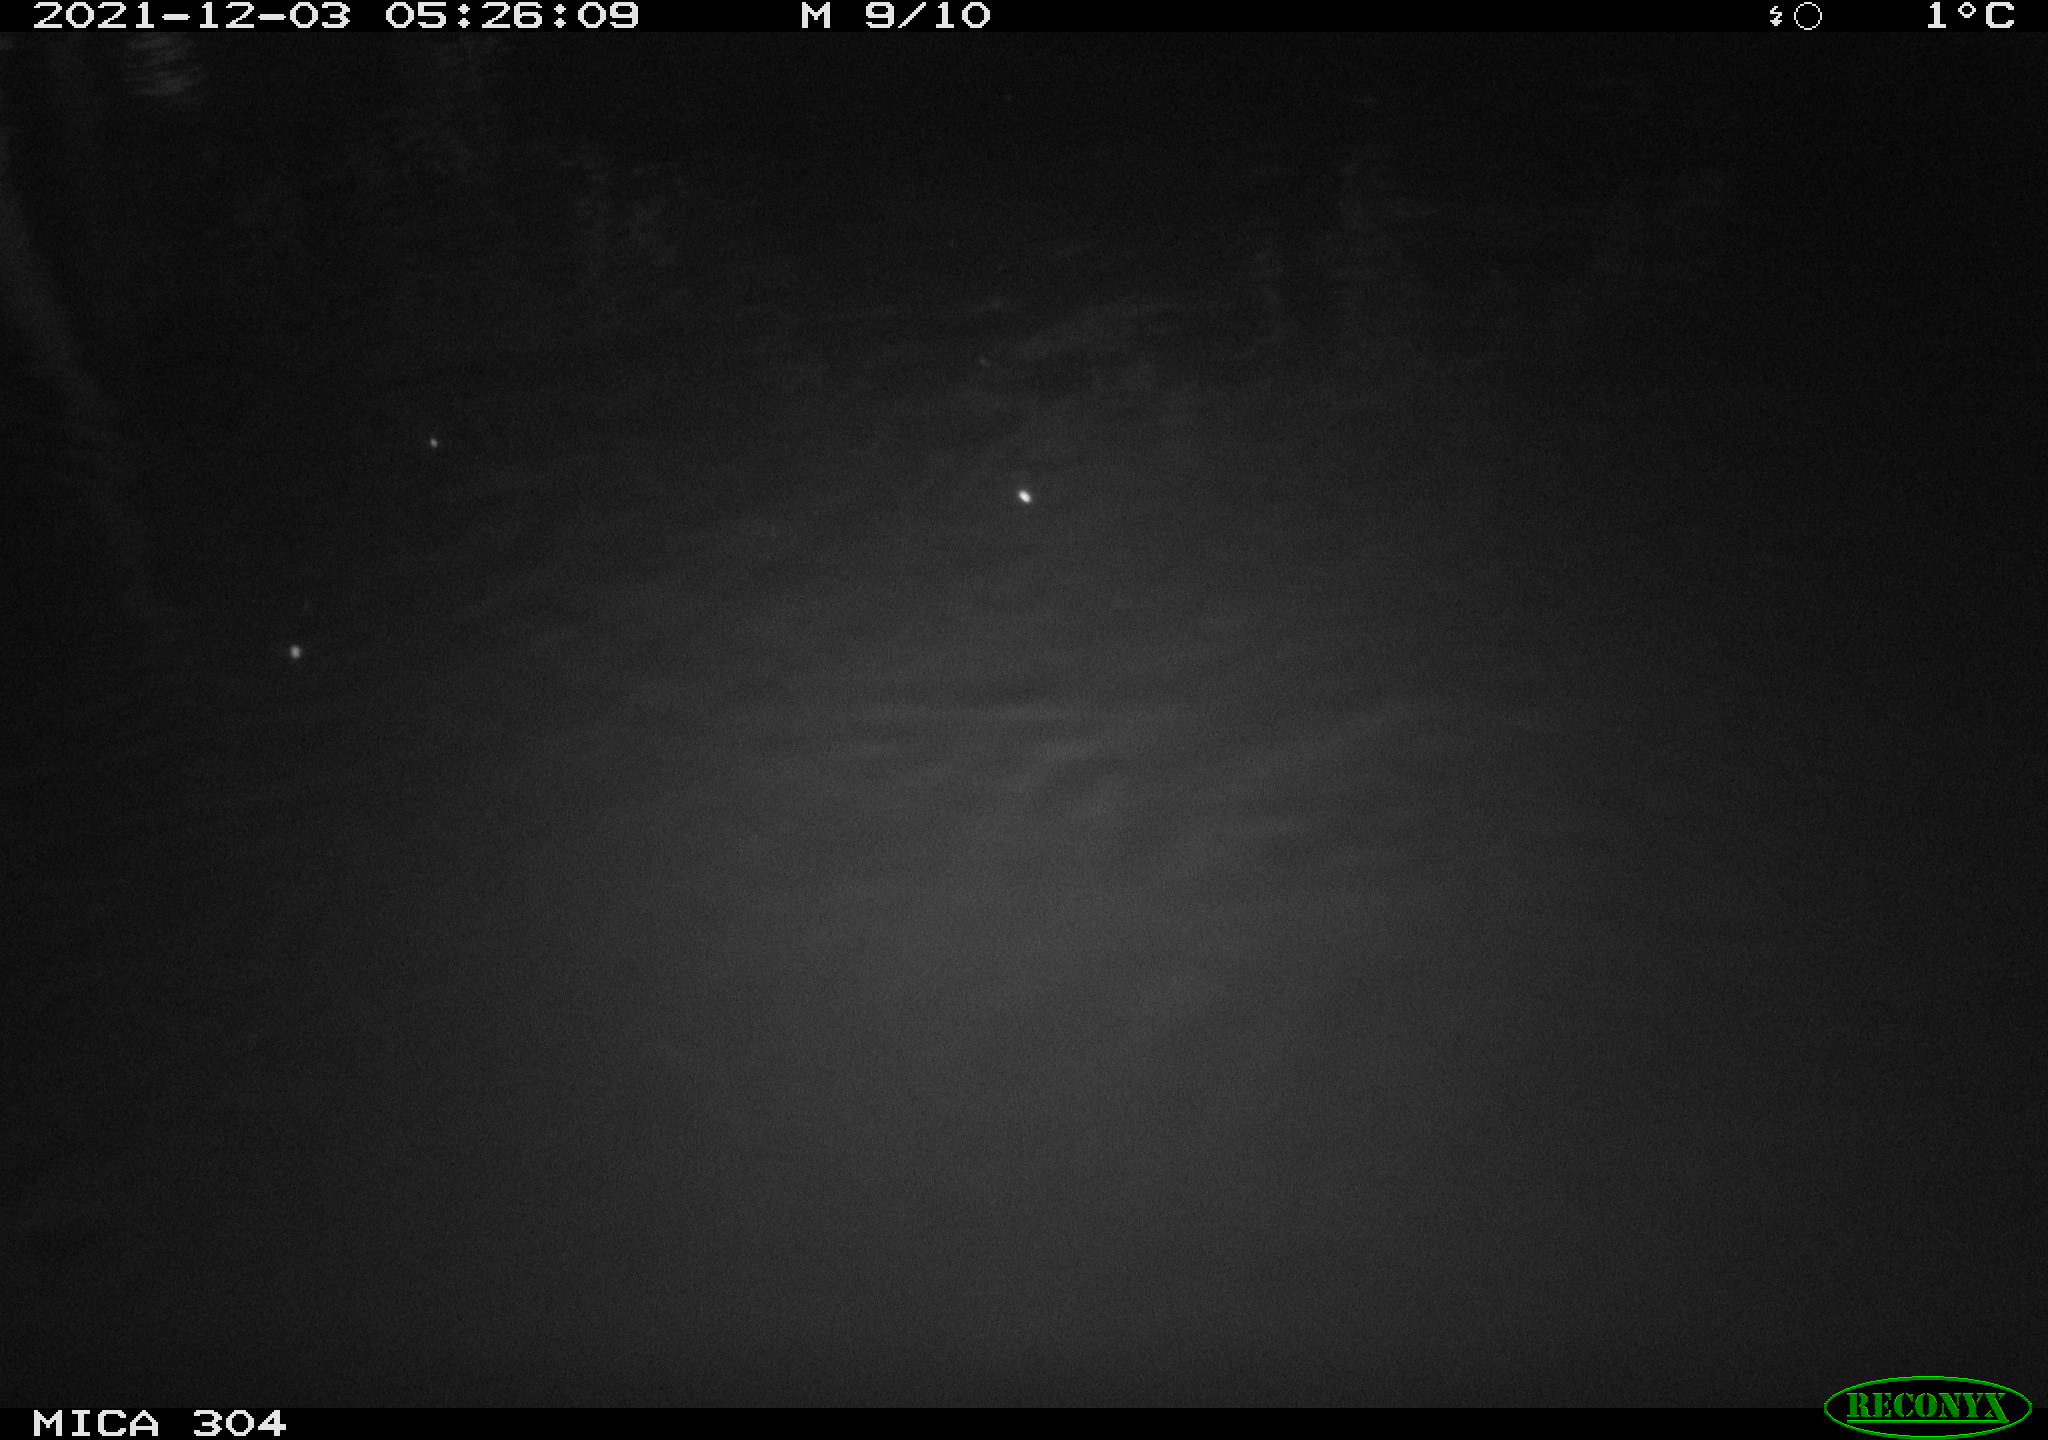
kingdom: Animalia
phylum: Chordata
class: Mammalia
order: Rodentia
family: Muridae
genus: Rattus
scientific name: Rattus norvegicus
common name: Brown rat
